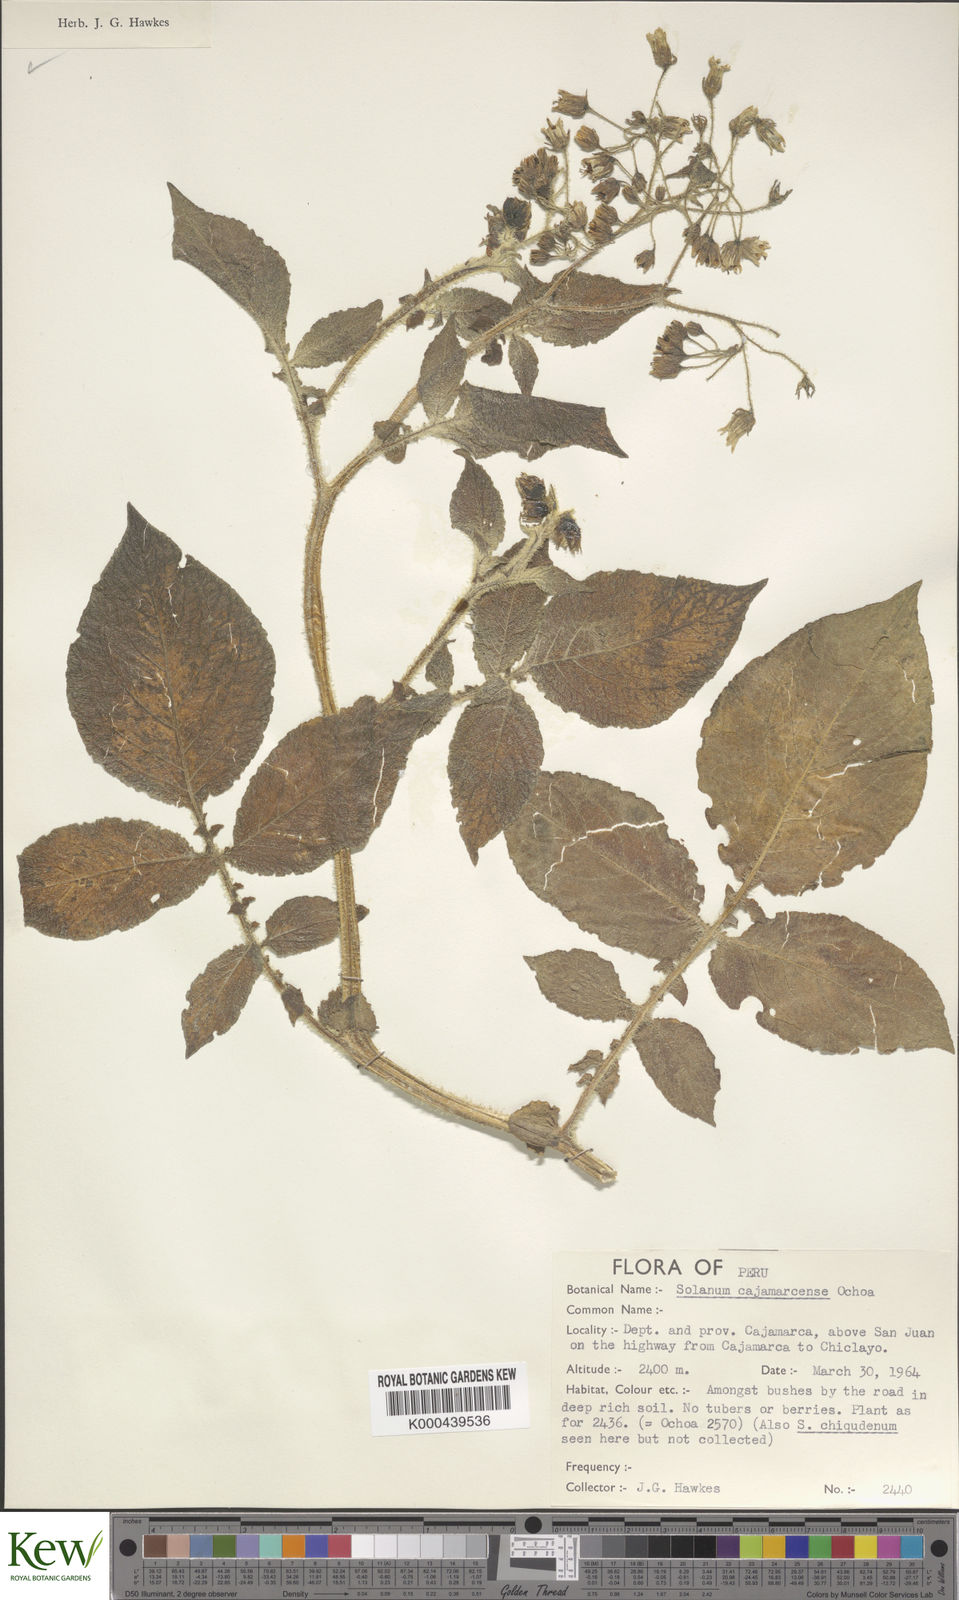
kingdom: Plantae
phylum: Tracheophyta
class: Magnoliopsida
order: Solanales
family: Solanaceae
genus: Solanum
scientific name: Solanum cajamarquense
